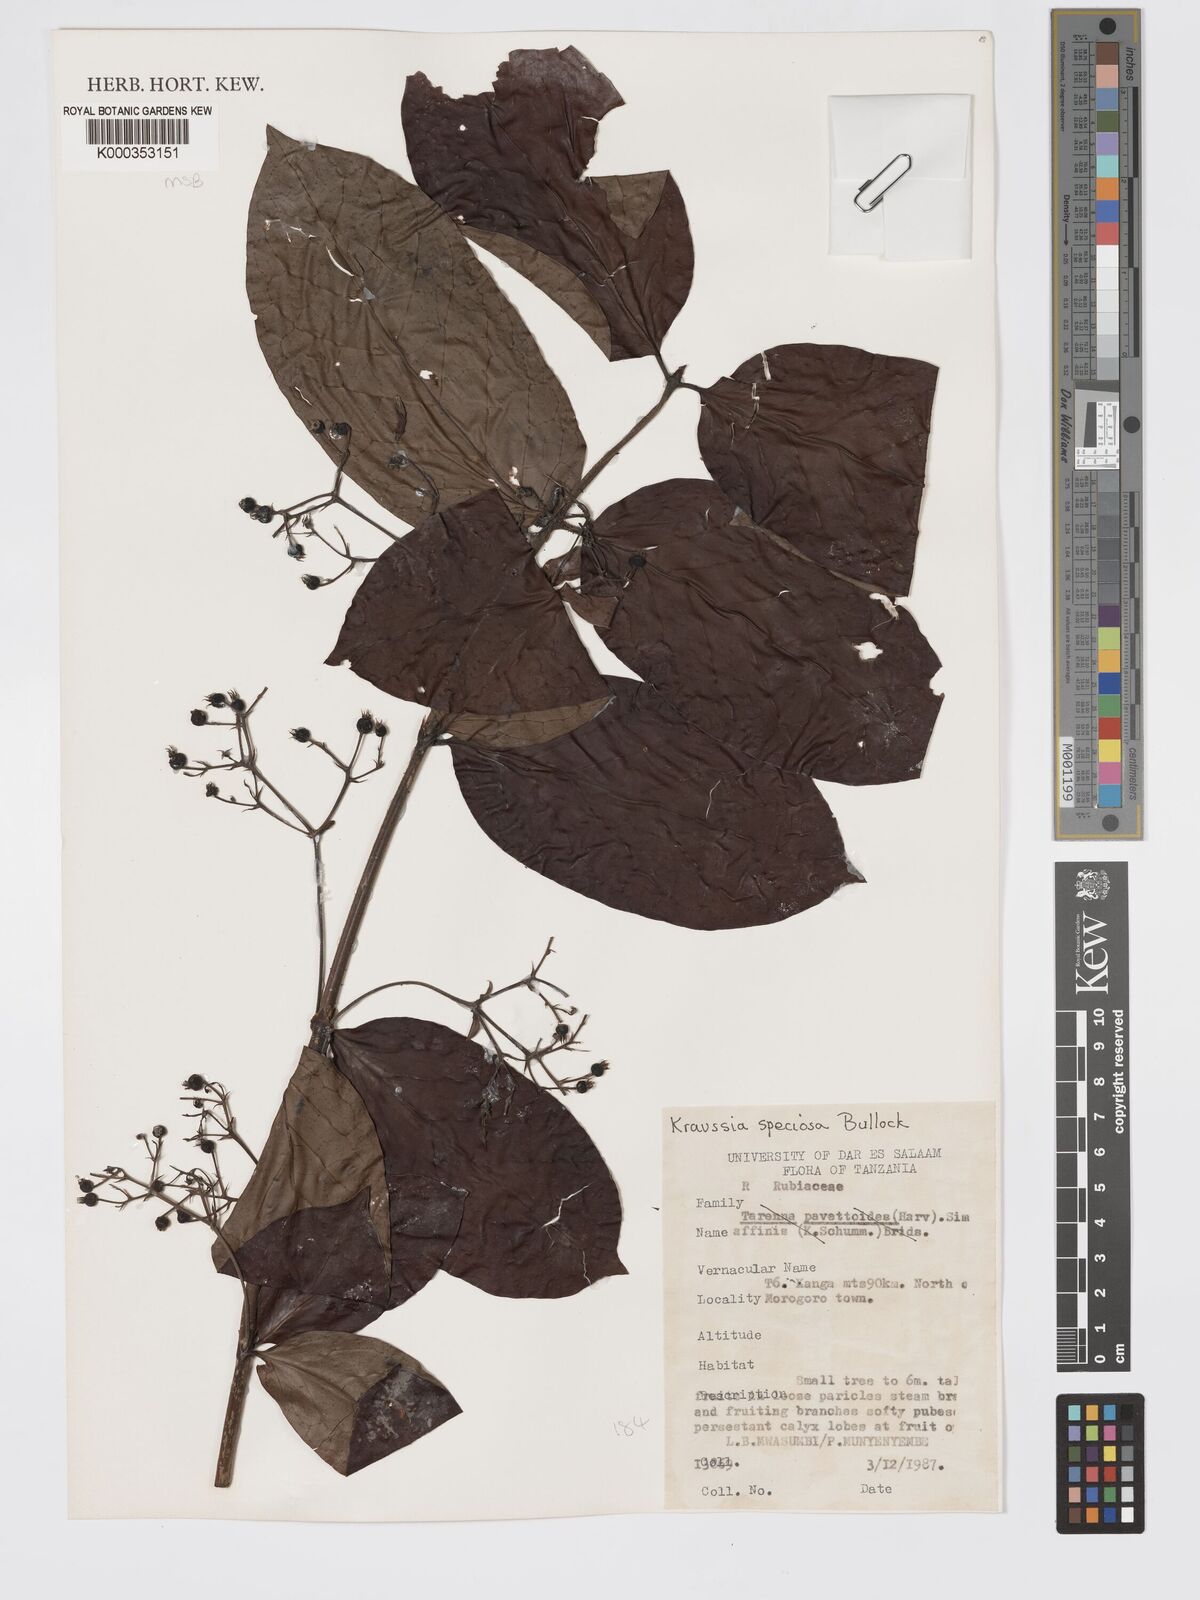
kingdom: Plantae
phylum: Tracheophyta
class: Magnoliopsida
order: Gentianales
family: Rubiaceae
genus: Kraussia
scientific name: Kraussia speciosa
